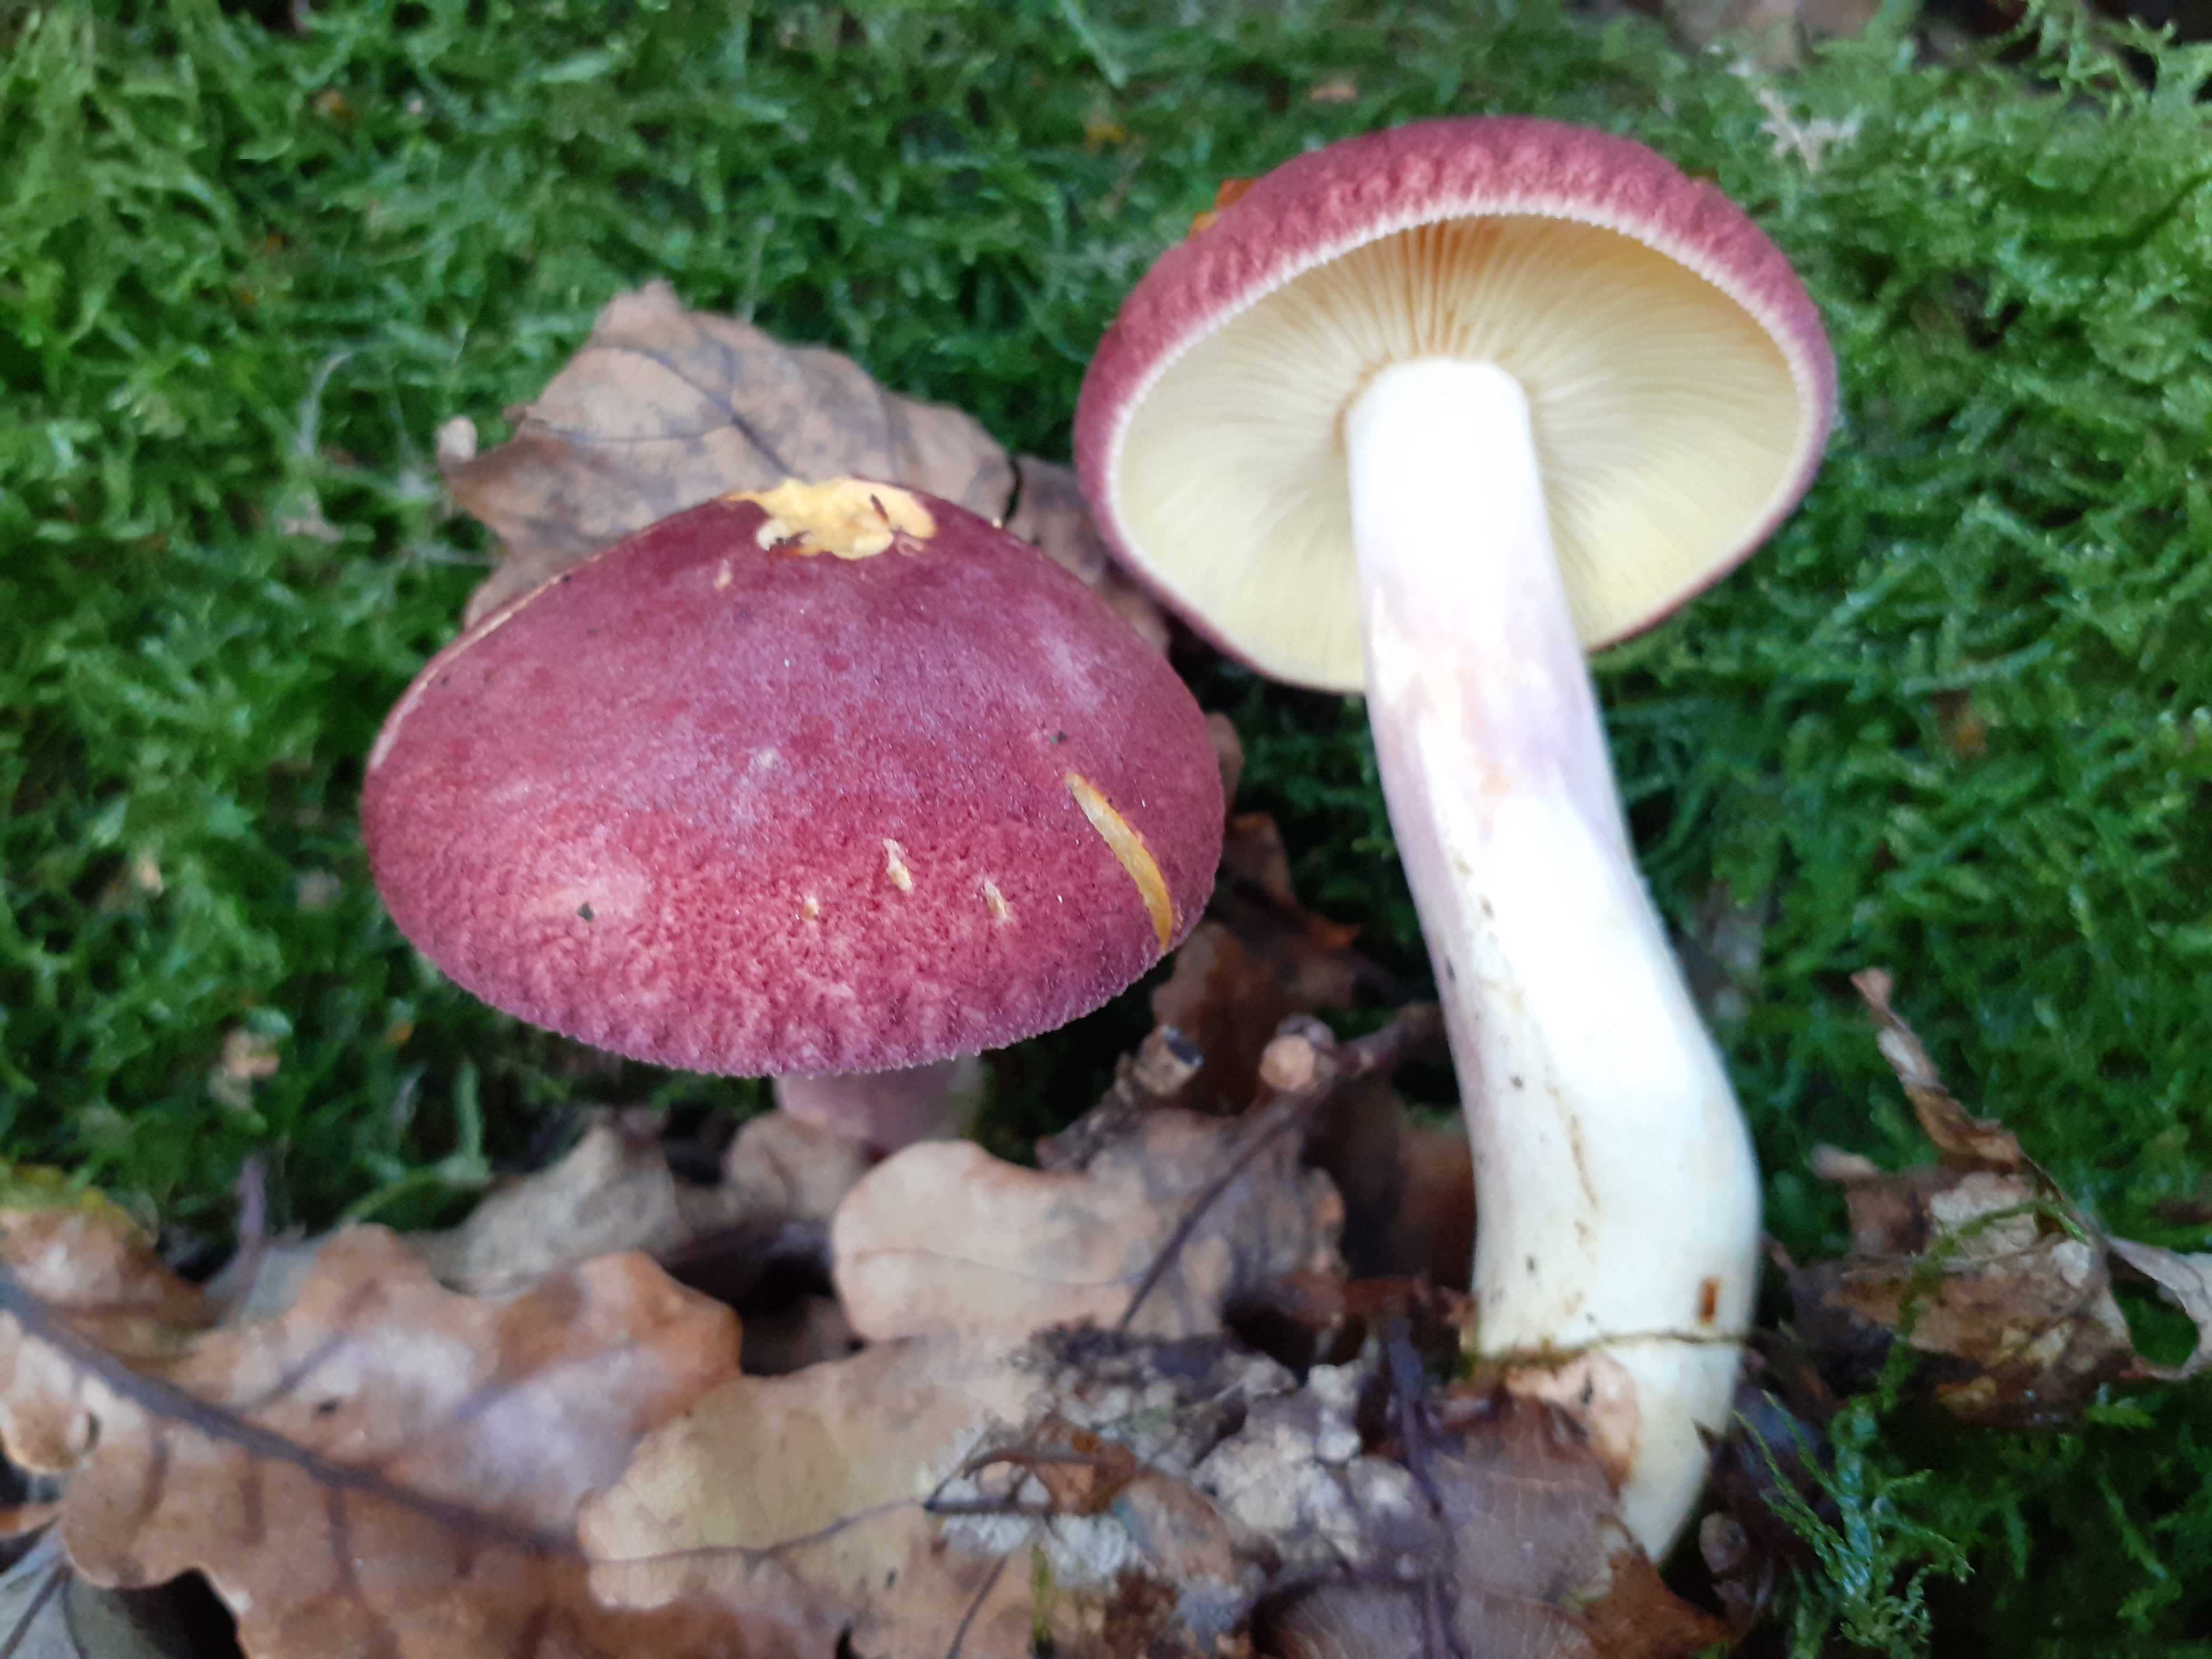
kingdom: Fungi
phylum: Basidiomycota
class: Agaricomycetes
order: Agaricales
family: Tricholomataceae
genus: Tricholomopsis
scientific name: Tricholomopsis rutilans
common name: purpur-væbnerhat
